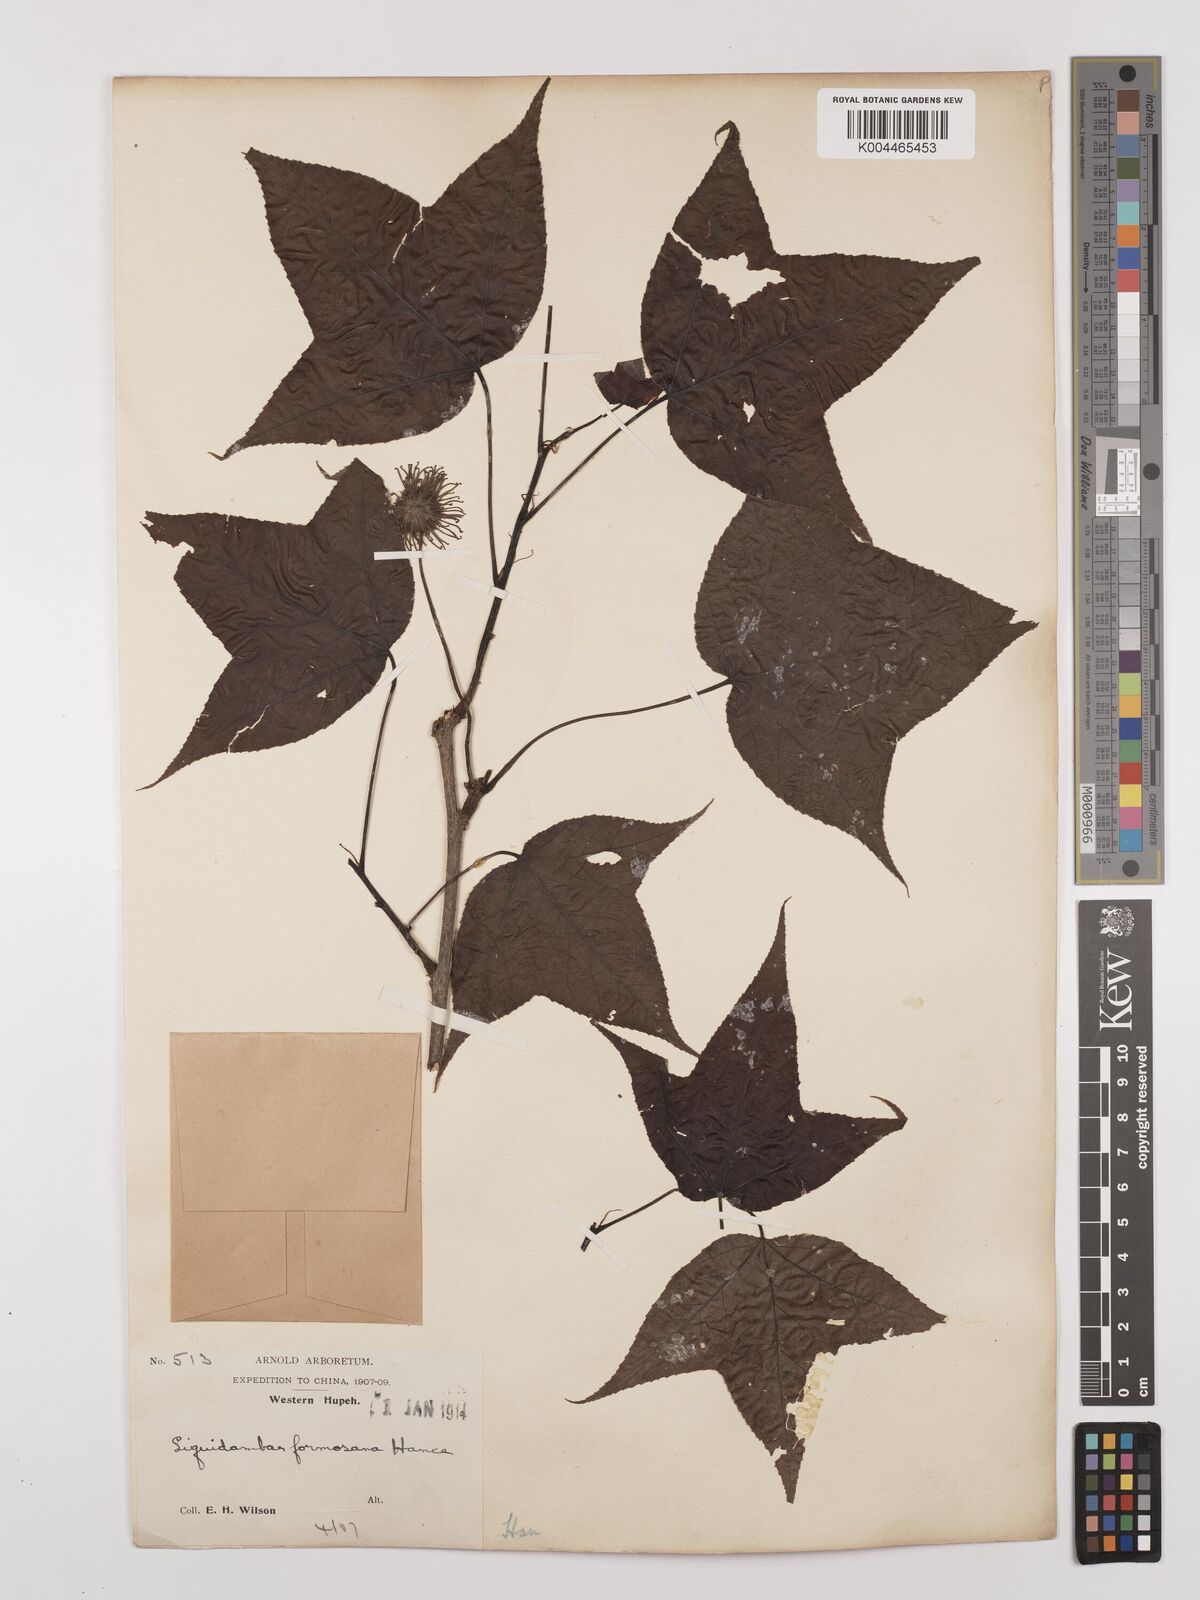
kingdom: Plantae
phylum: Tracheophyta
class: Magnoliopsida
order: Saxifragales
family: Altingiaceae
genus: Liquidambar
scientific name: Liquidambar formosana
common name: Chinese sweet gum
